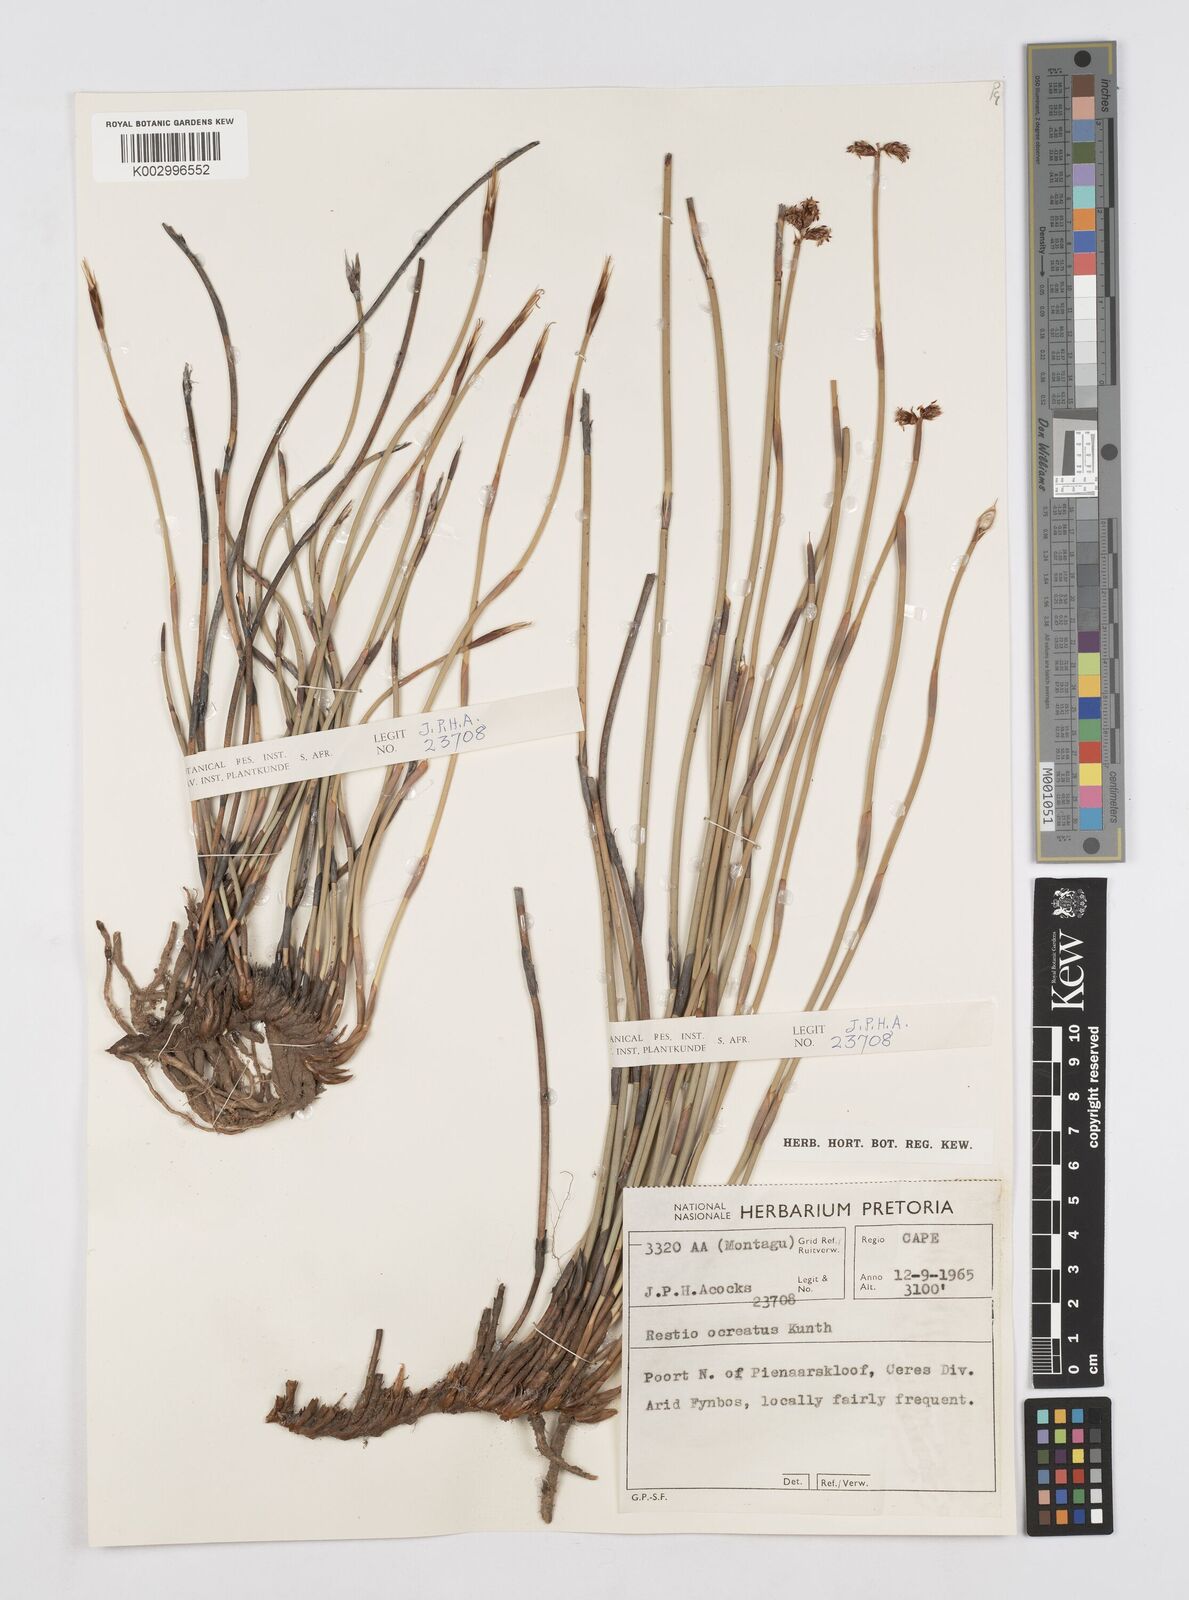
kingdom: Plantae
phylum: Tracheophyta
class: Liliopsida
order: Poales
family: Restionaceae
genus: Hypodiscus
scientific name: Hypodiscus sulcatus
